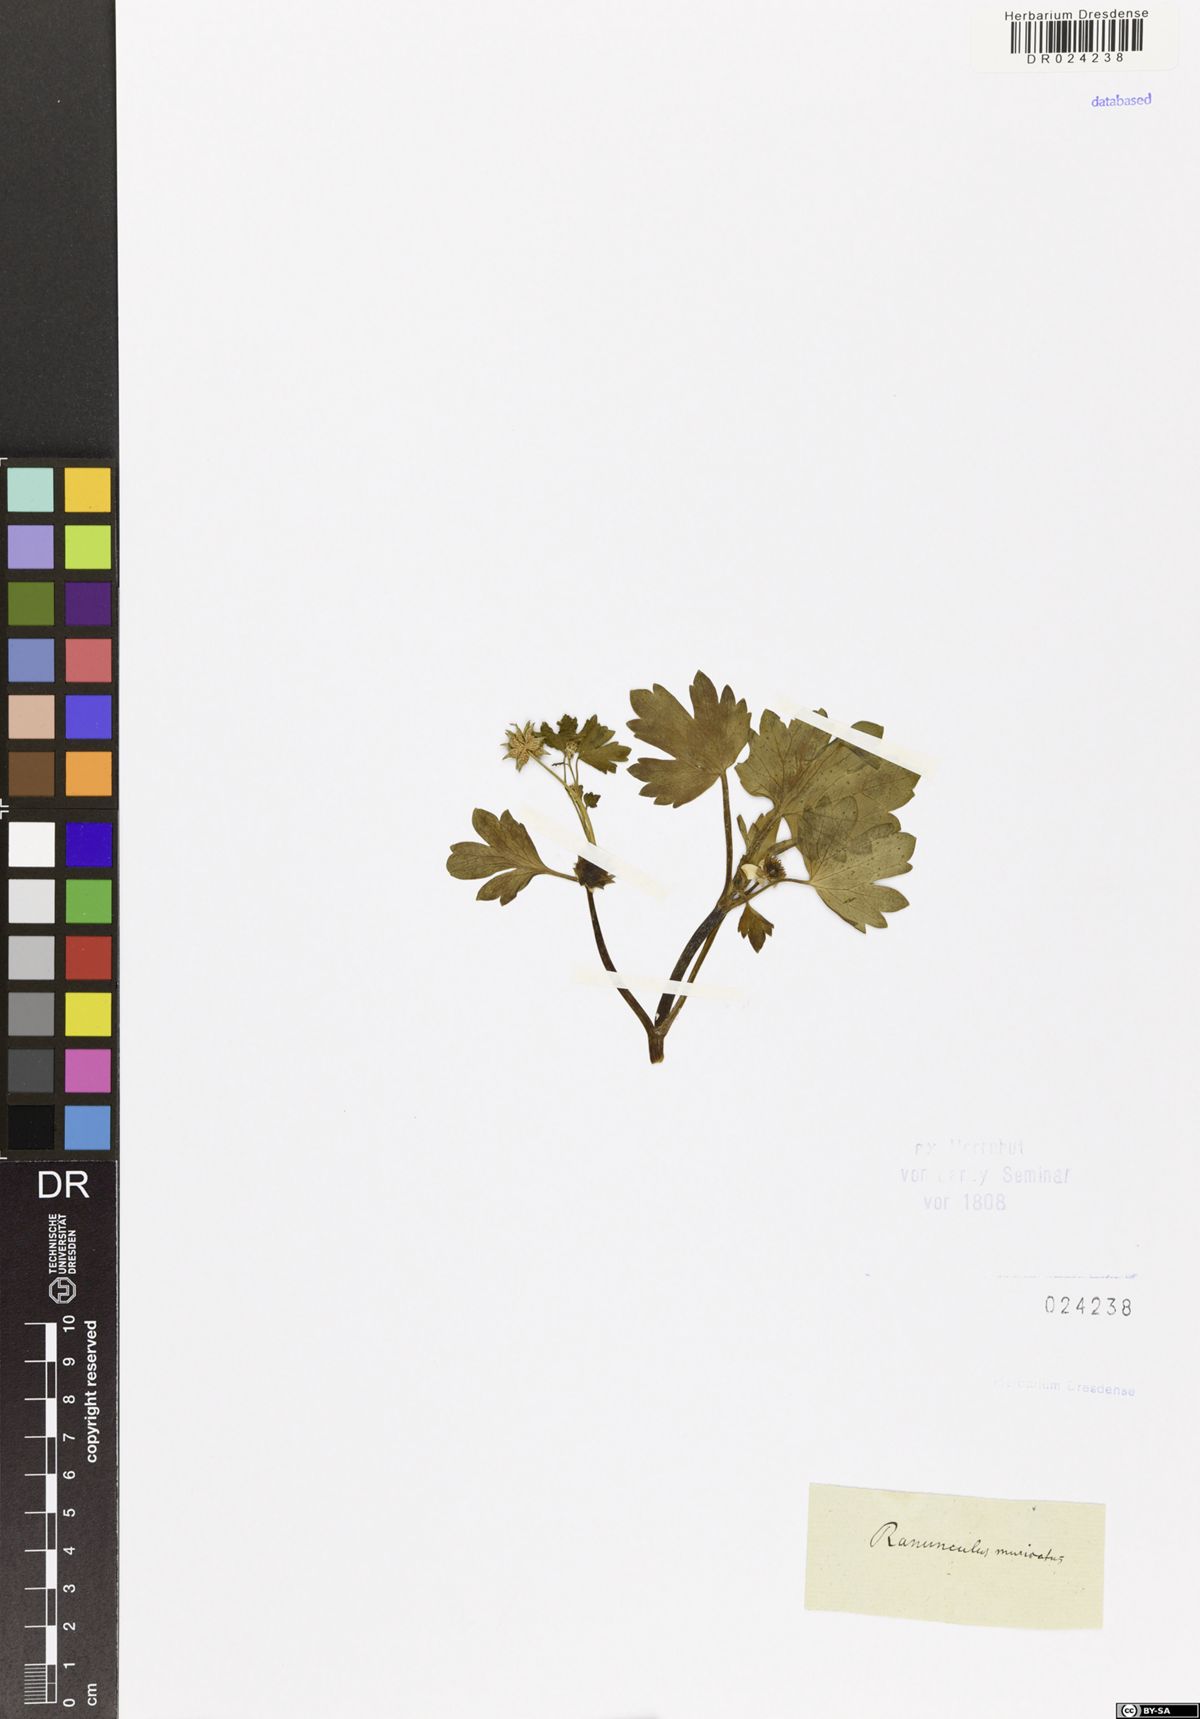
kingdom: Plantae
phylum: Tracheophyta
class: Magnoliopsida
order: Ranunculales
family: Ranunculaceae
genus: Ranunculus
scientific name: Ranunculus muricatus
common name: Rough-fruited buttercup
